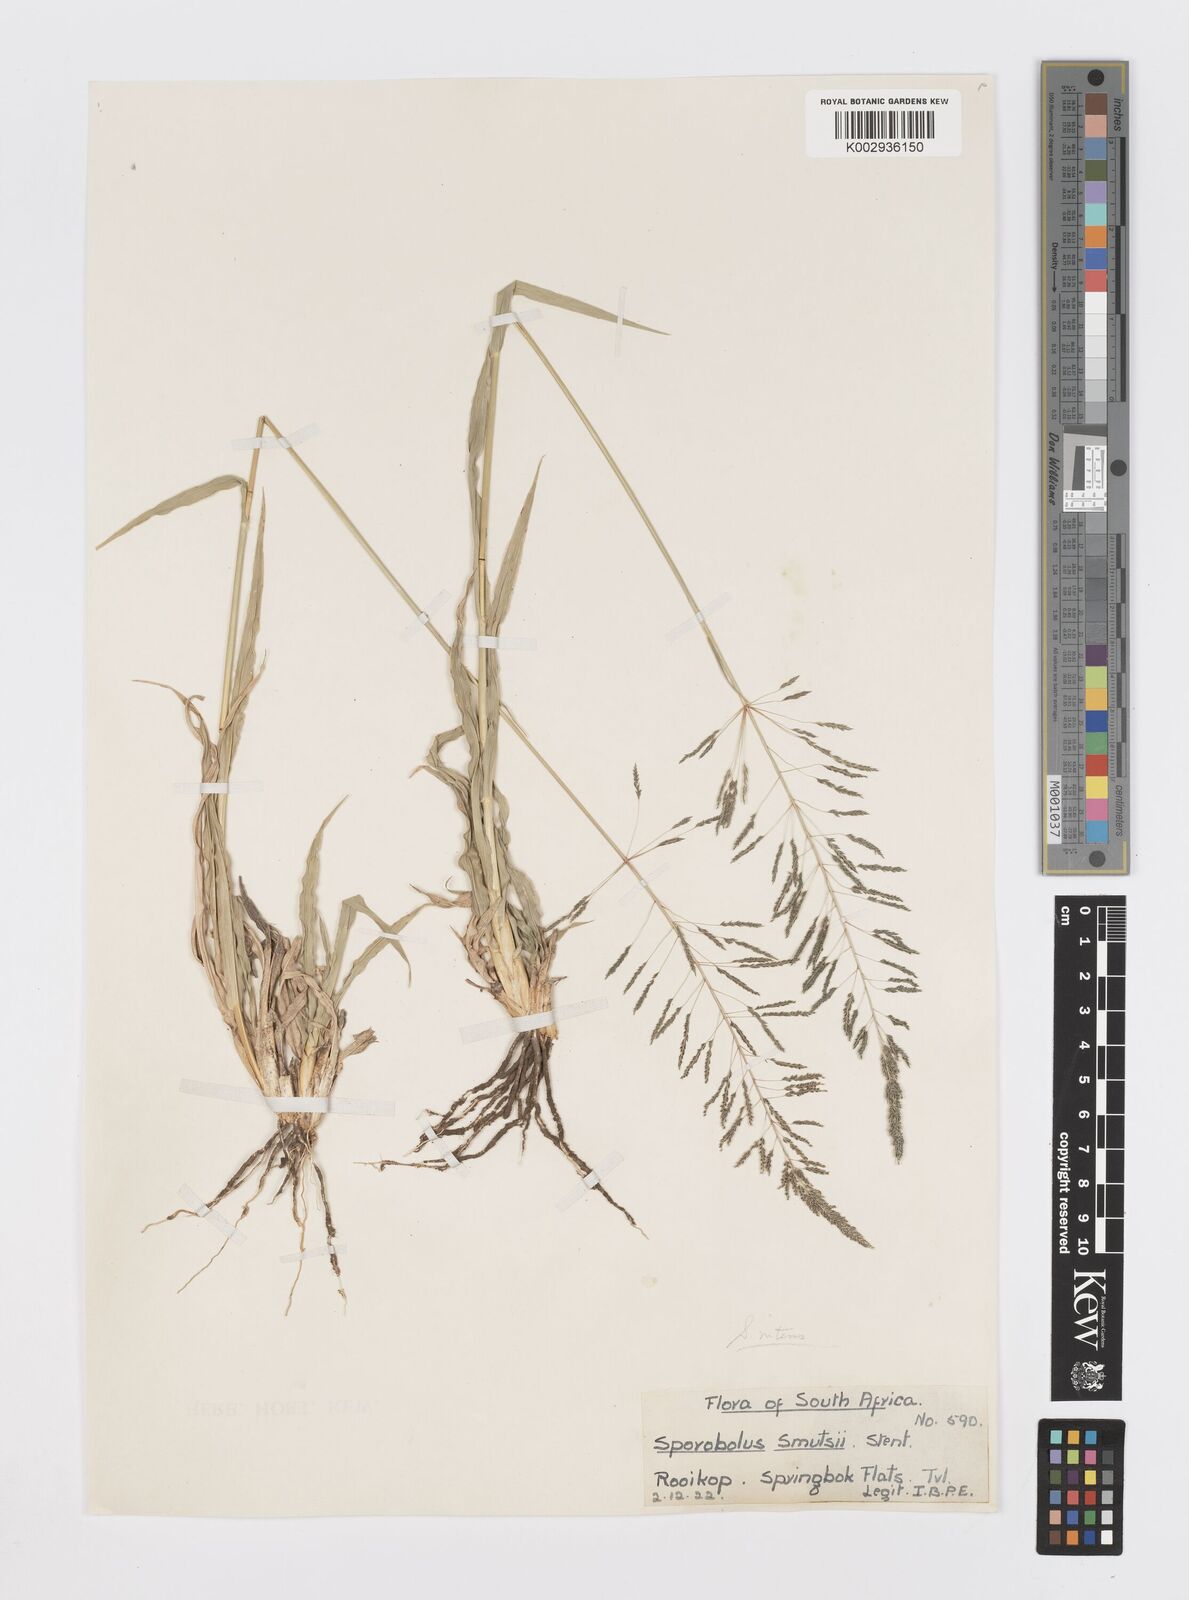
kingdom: Plantae
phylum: Tracheophyta
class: Liliopsida
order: Poales
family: Poaceae
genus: Sporobolus
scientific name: Sporobolus nitens
